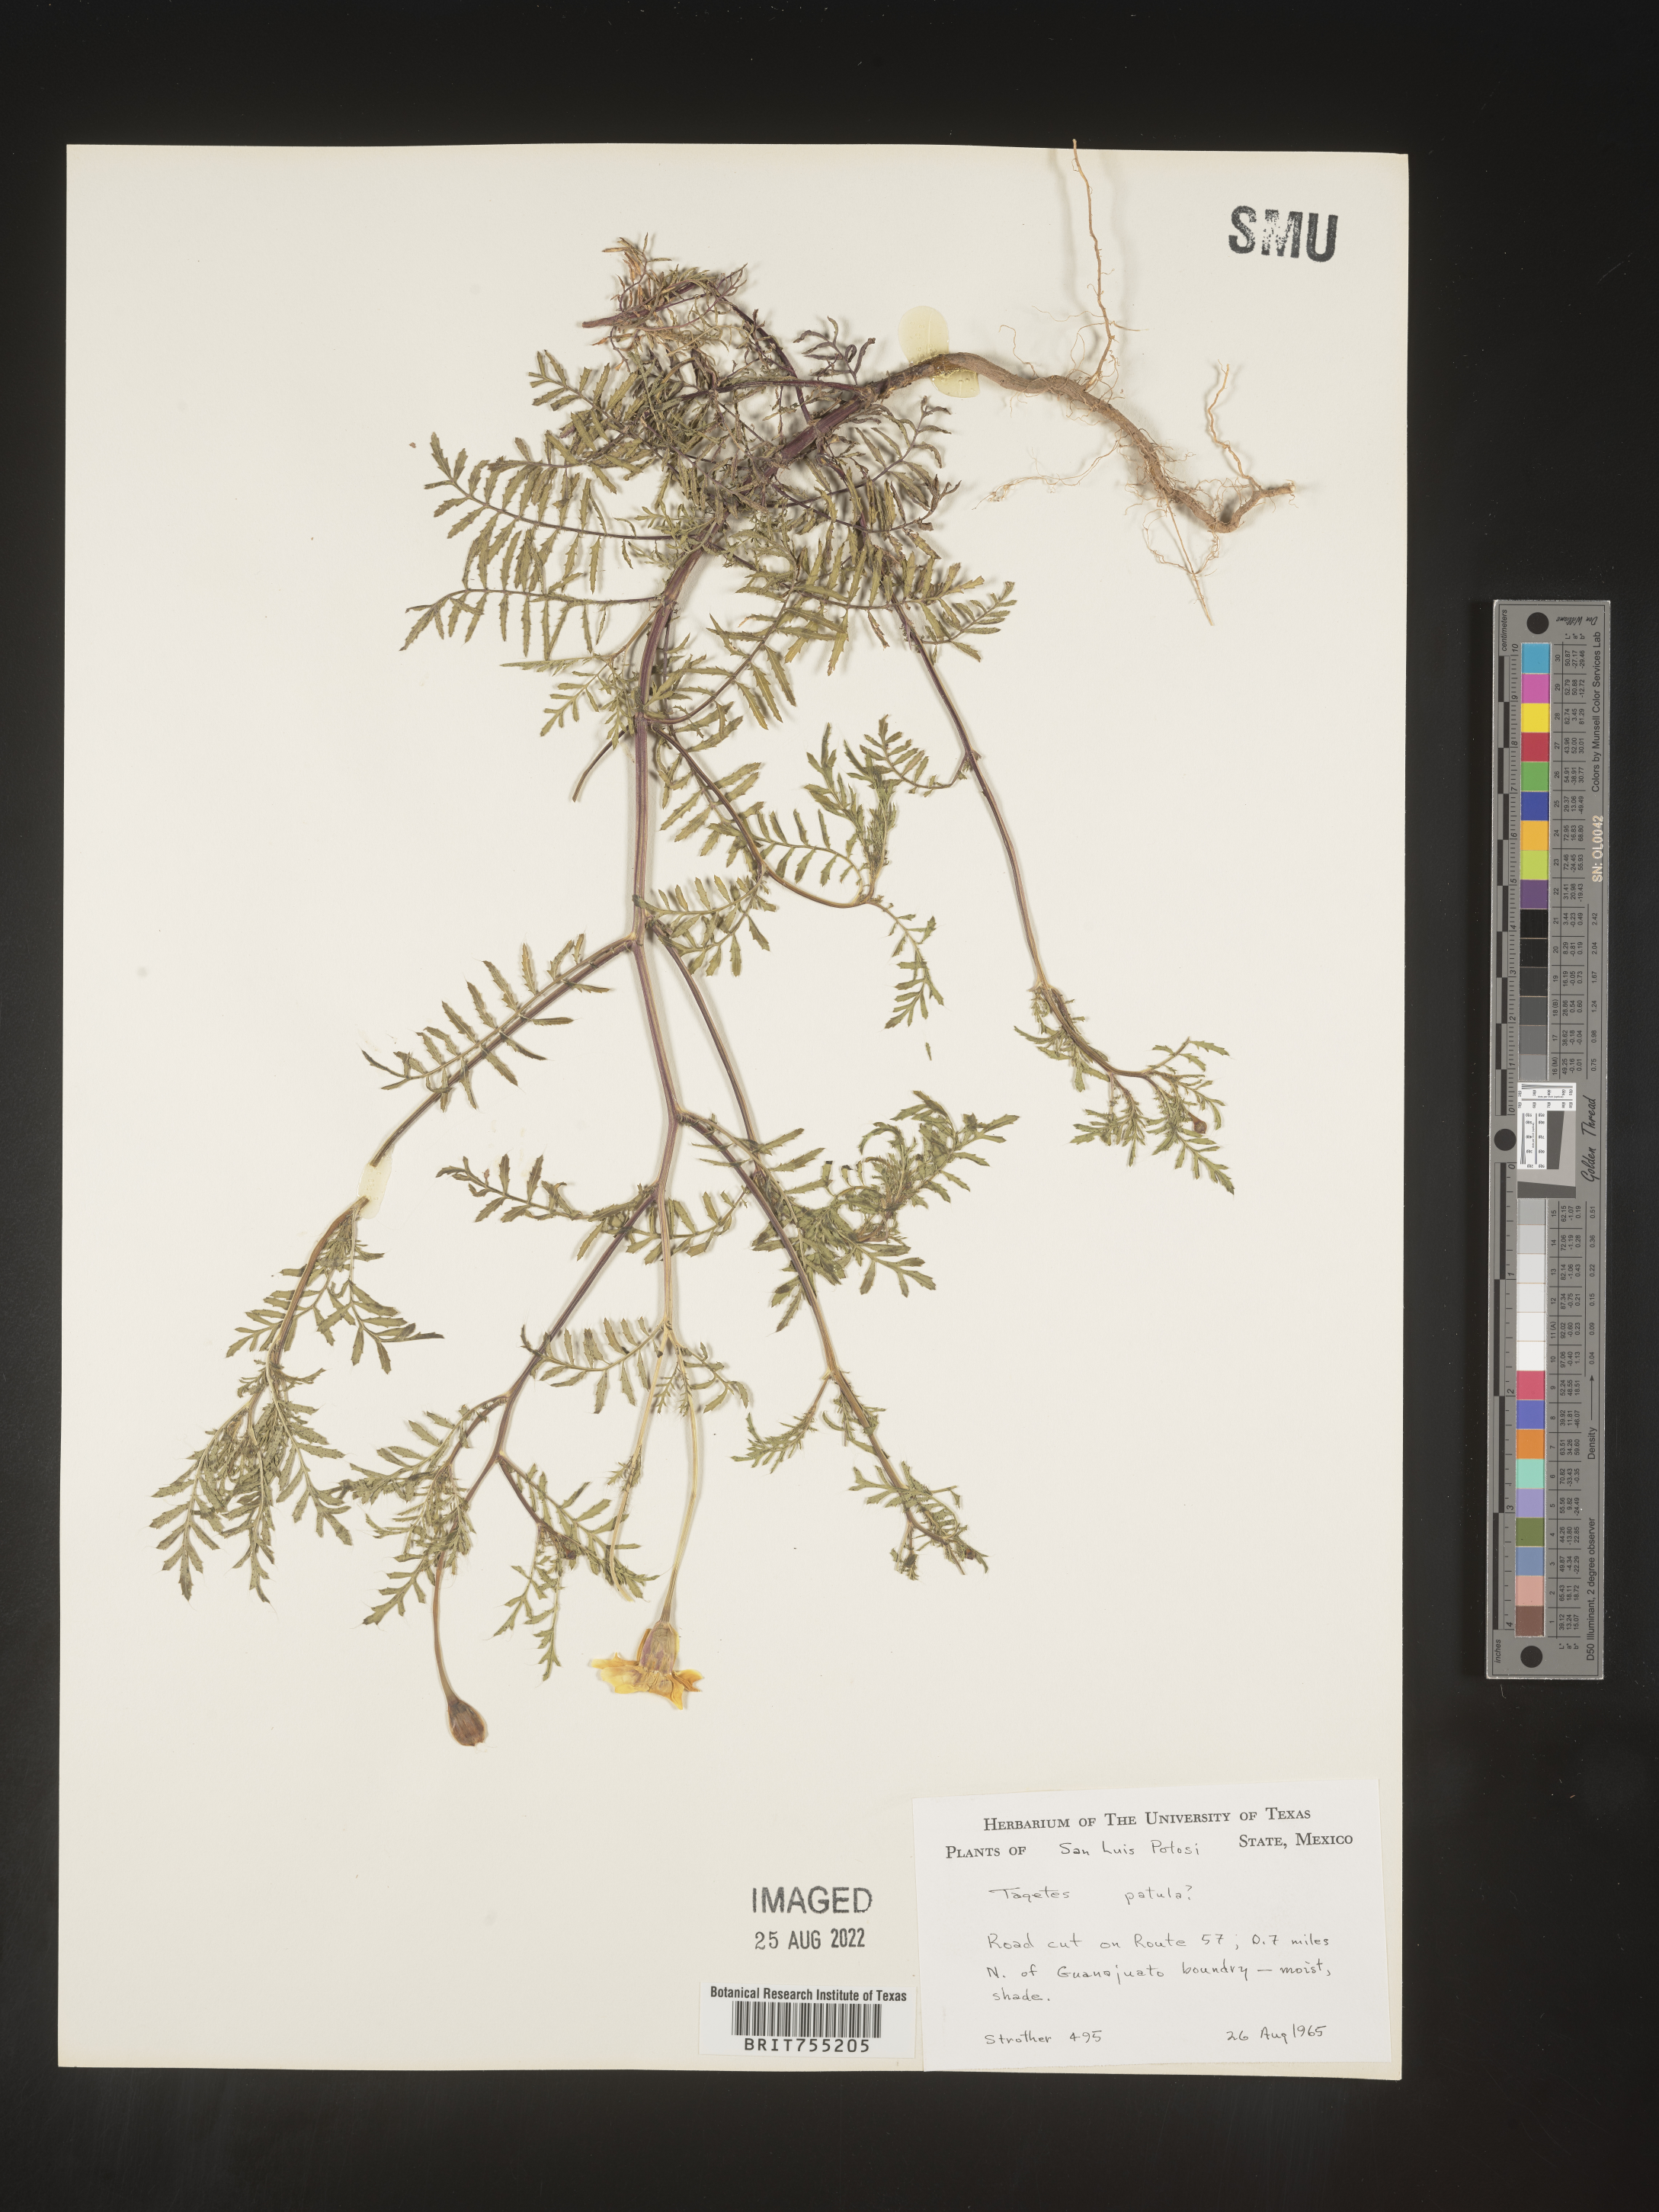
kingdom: Plantae
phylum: Tracheophyta
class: Magnoliopsida
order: Asterales
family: Asteraceae
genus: Tagetes
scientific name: Tagetes
